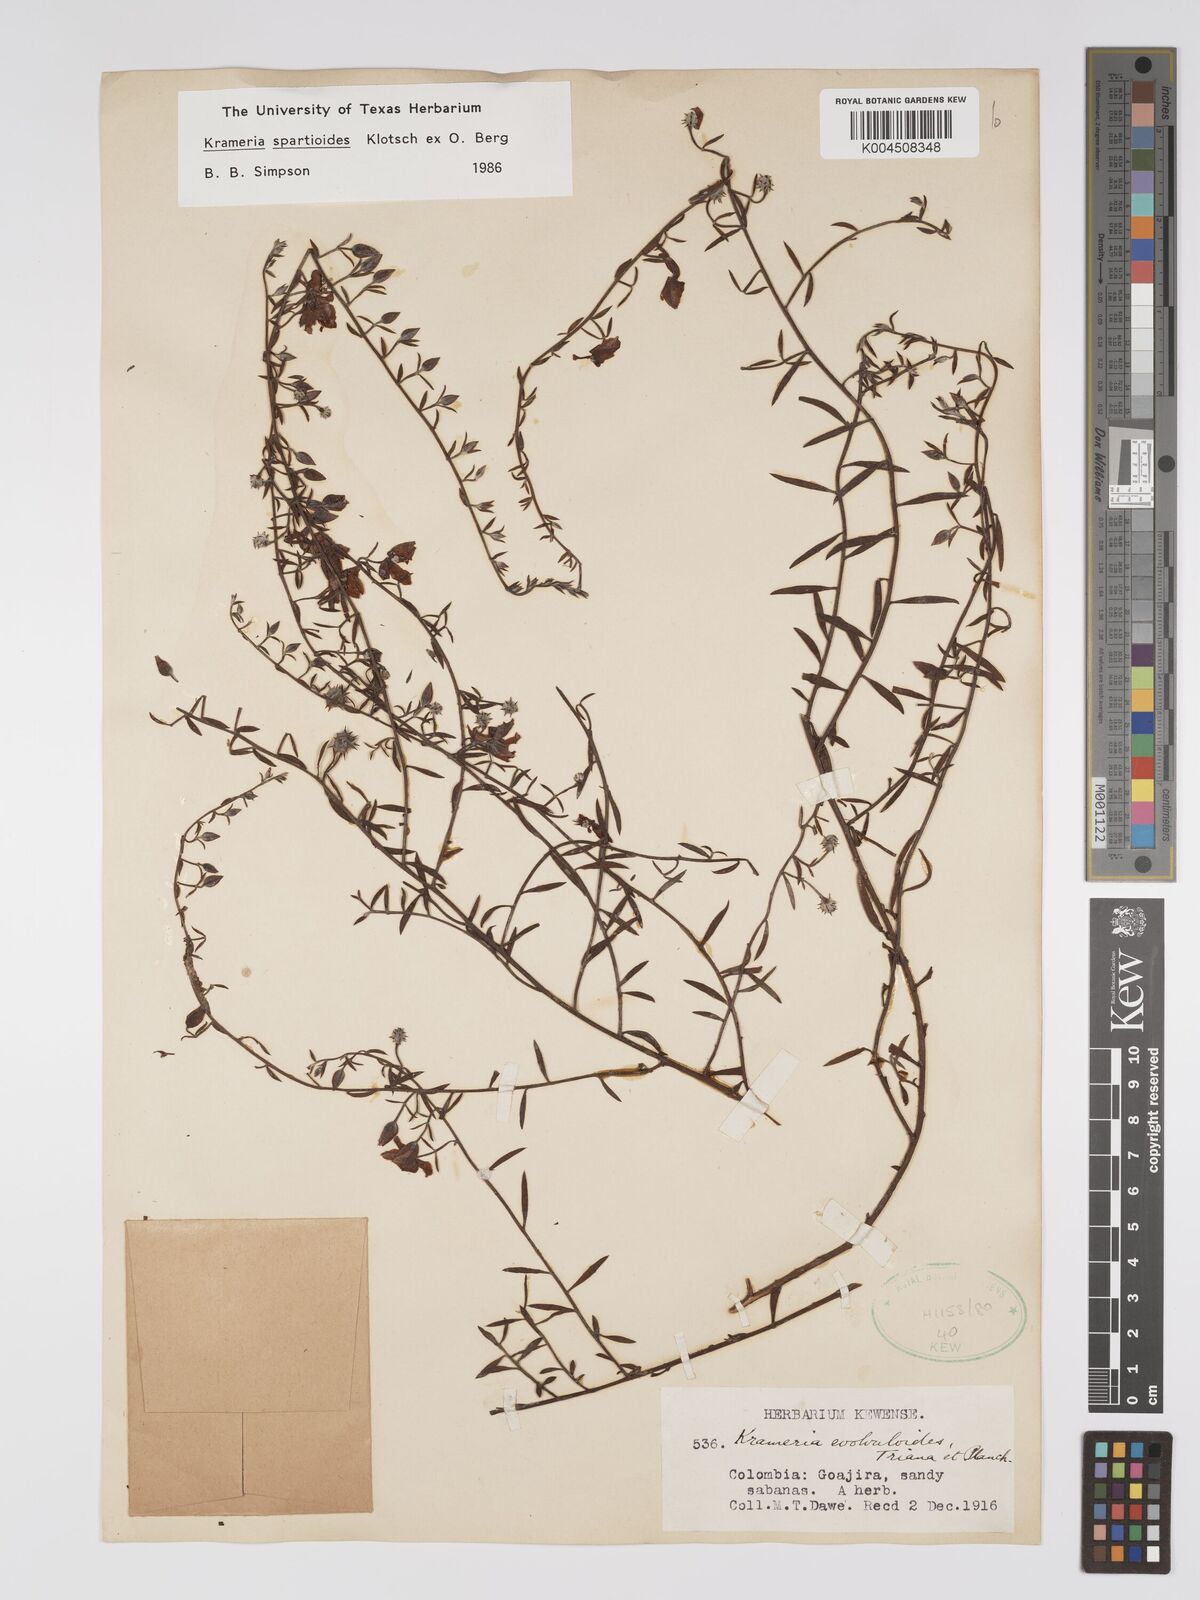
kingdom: Plantae
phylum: Tracheophyta
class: Magnoliopsida
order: Zygophyllales
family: Krameriaceae
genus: Krameria
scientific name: Krameria spartioides
